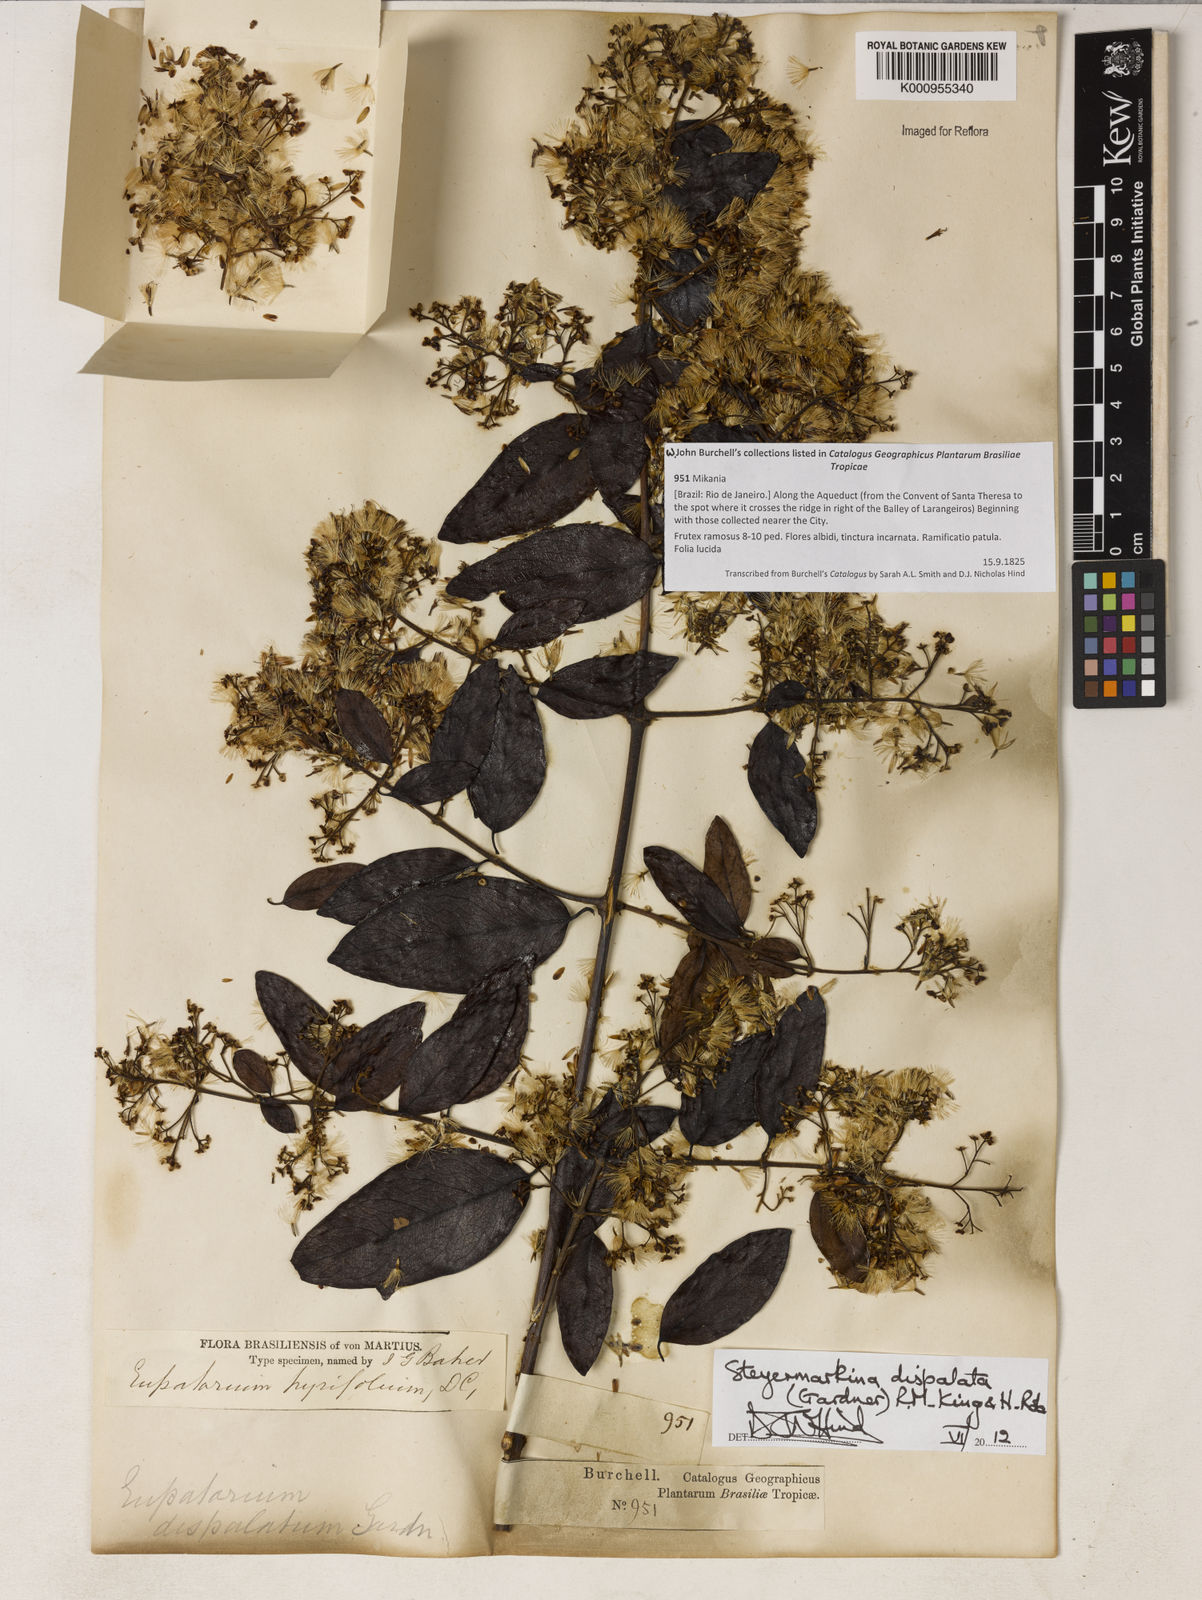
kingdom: Plantae
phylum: Tracheophyta
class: Magnoliopsida
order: Asterales
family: Asteraceae
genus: Steyermarkina
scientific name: Steyermarkina dispalata
